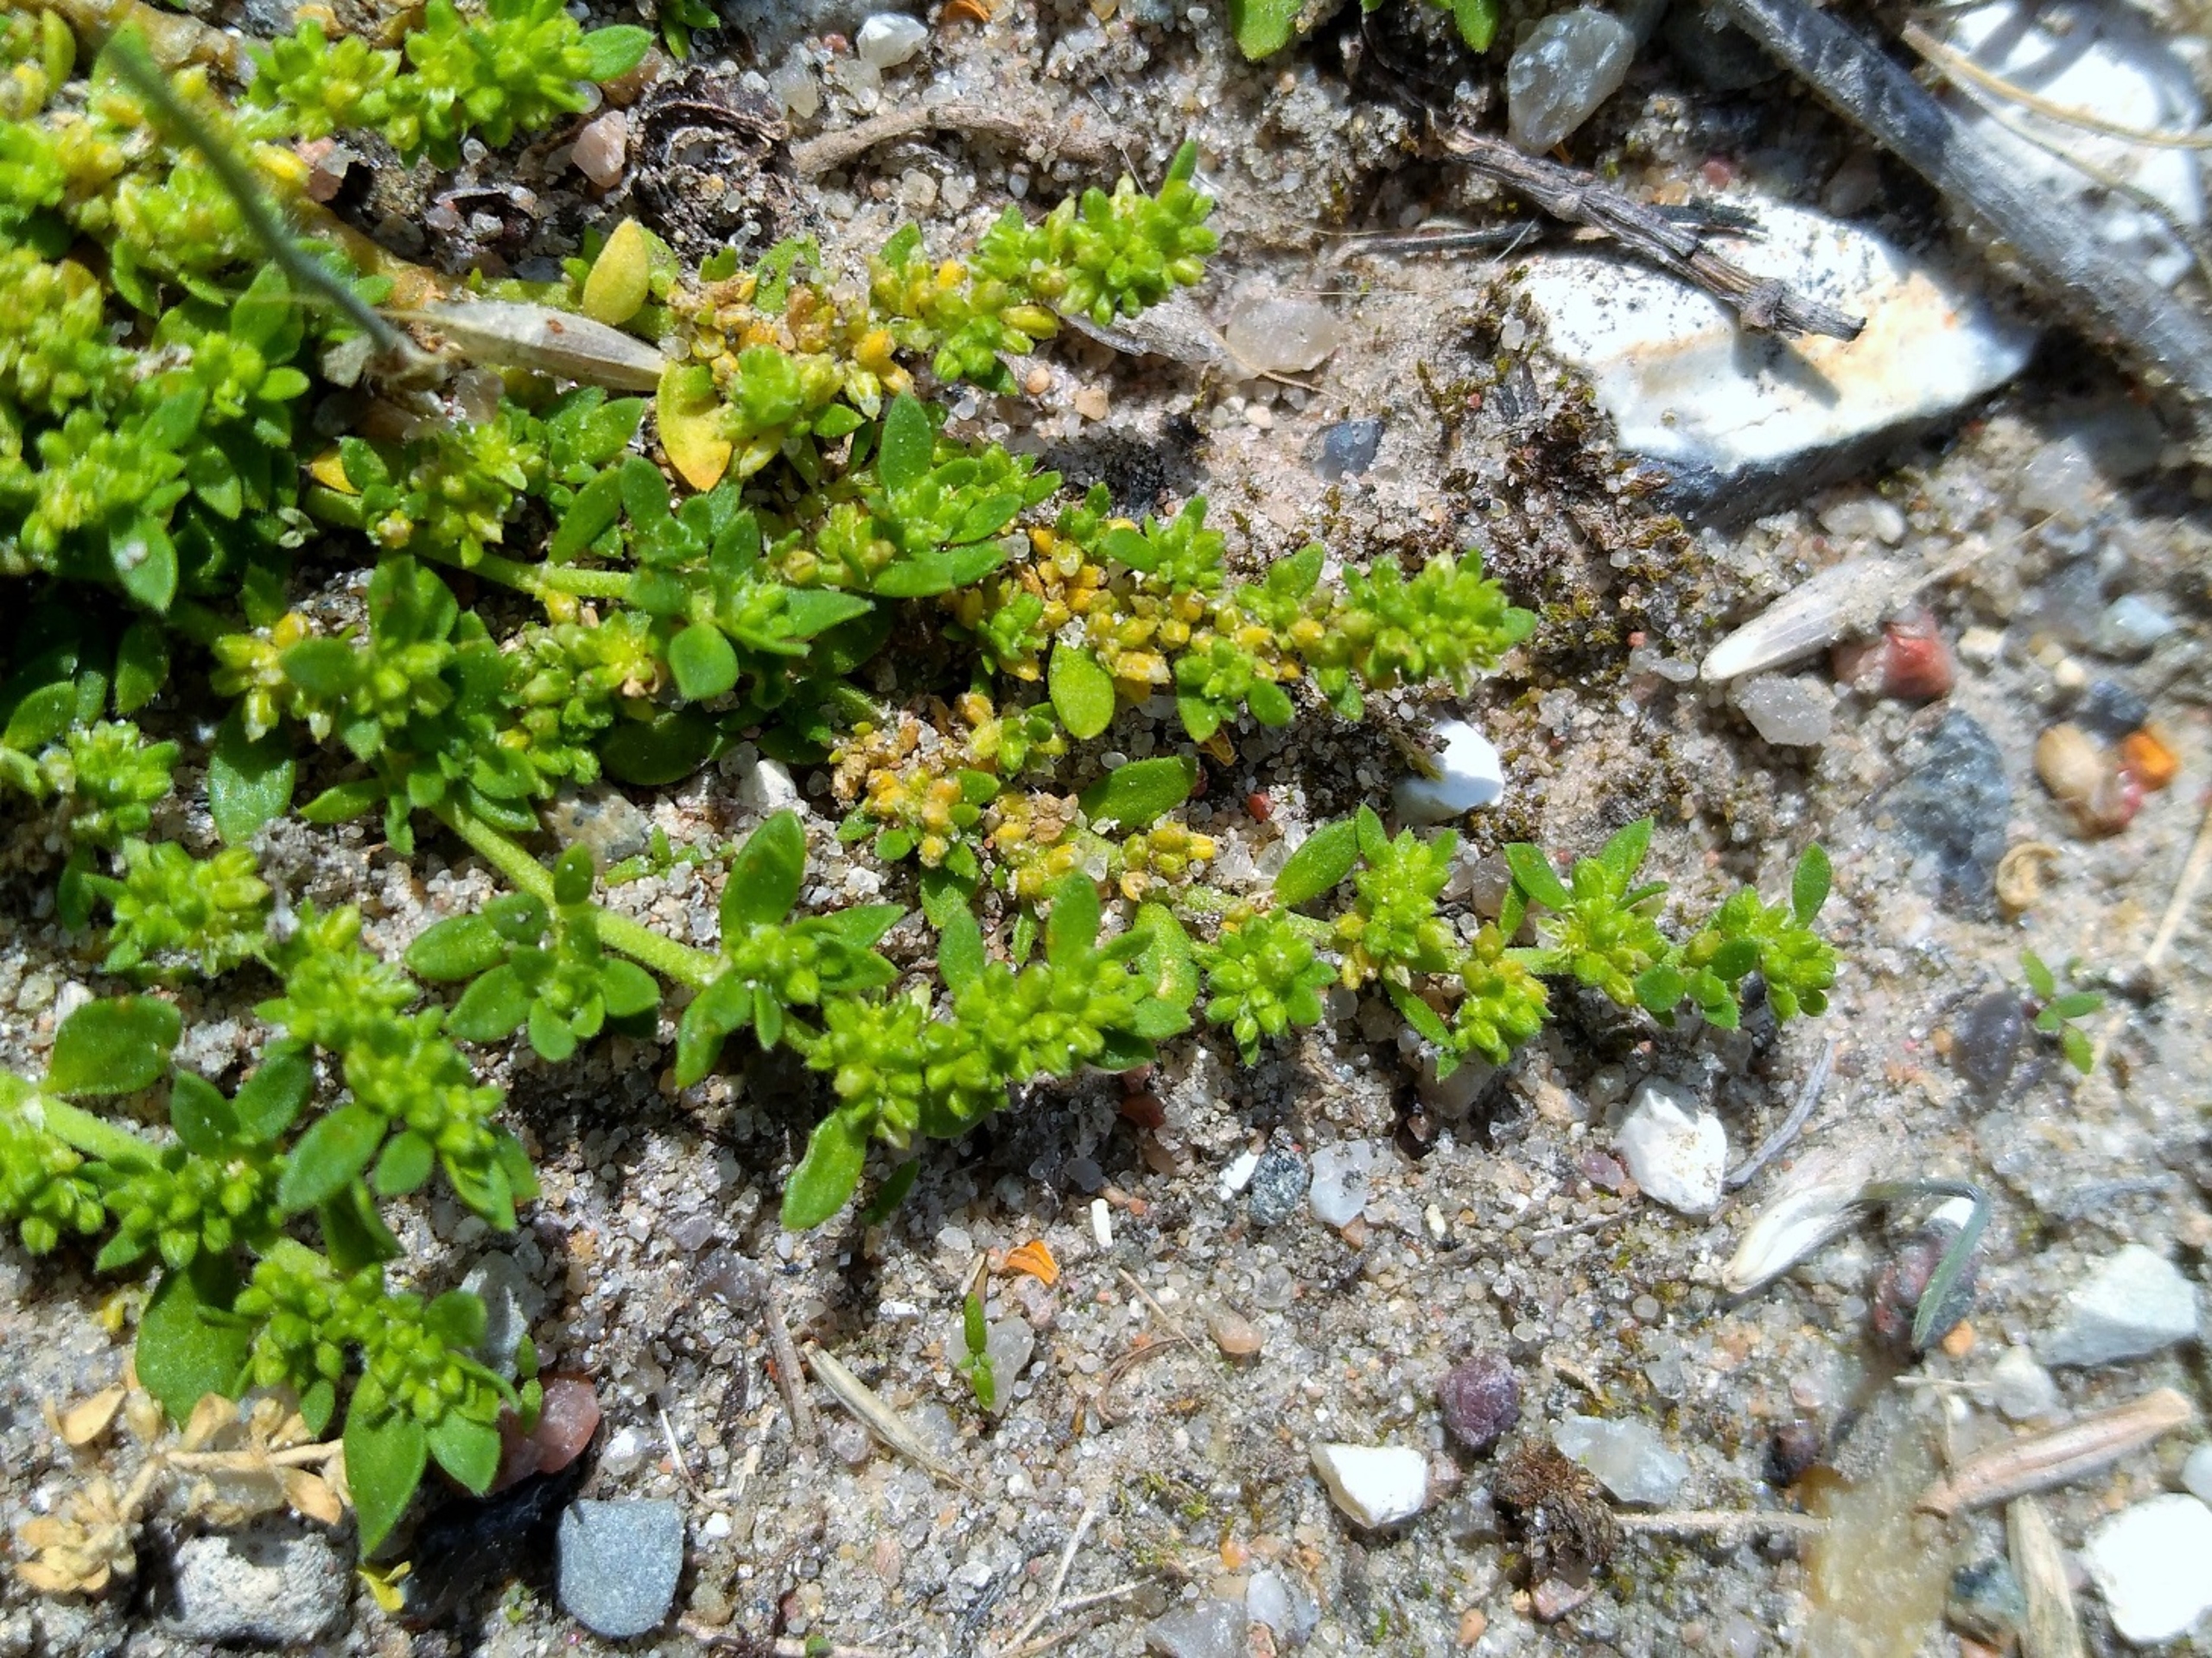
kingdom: Plantae
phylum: Tracheophyta
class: Magnoliopsida
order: Caryophyllales
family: Caryophyllaceae
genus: Herniaria
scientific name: Herniaria glabra
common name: Brudurt
